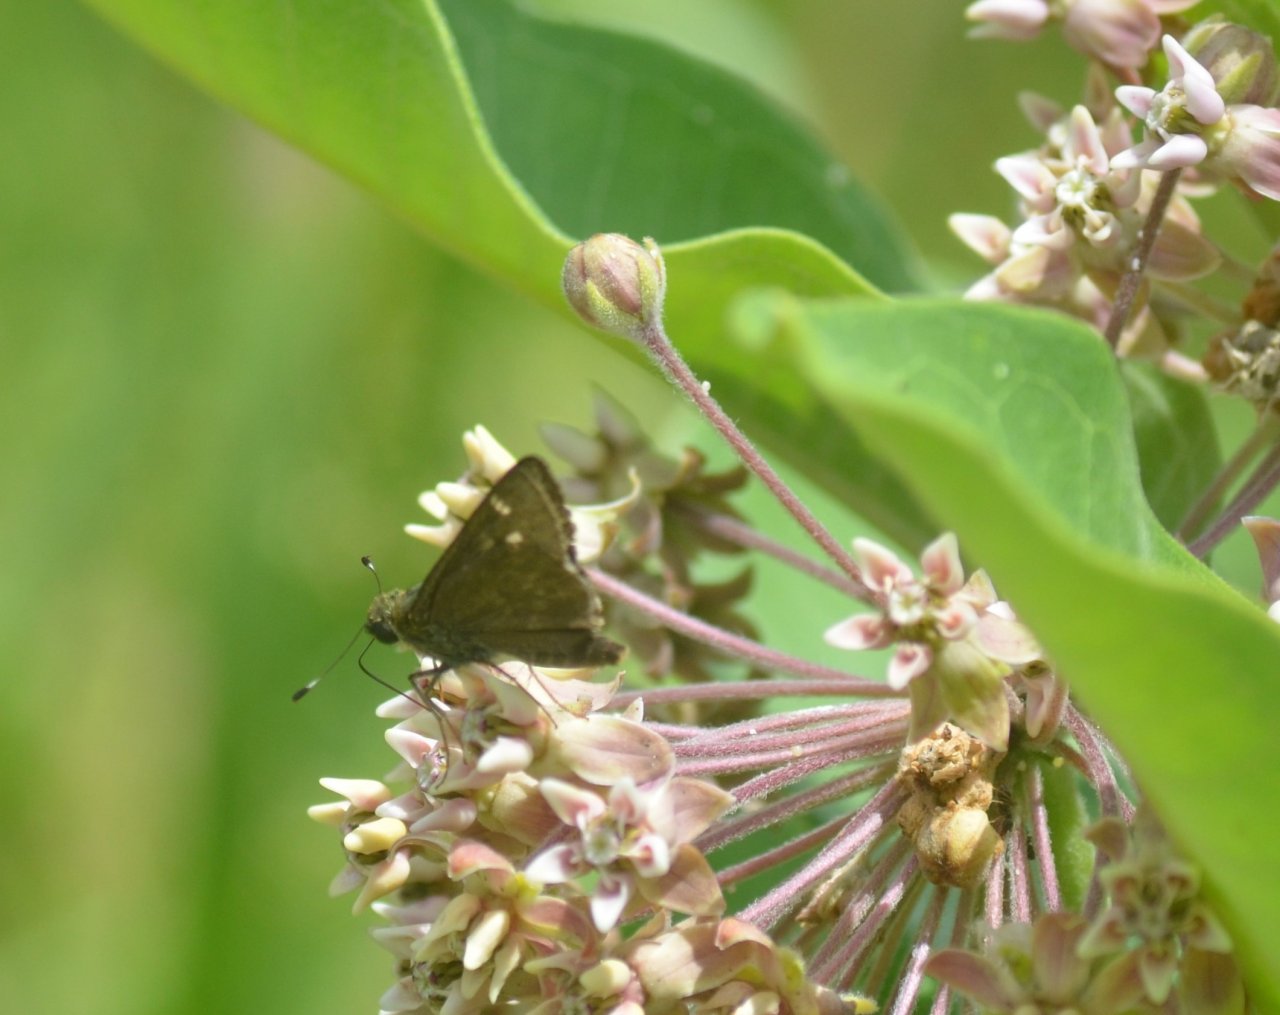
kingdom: Animalia
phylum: Arthropoda
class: Insecta
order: Lepidoptera
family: Hesperiidae
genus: Vernia
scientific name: Vernia verna
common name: Little Glassywing
